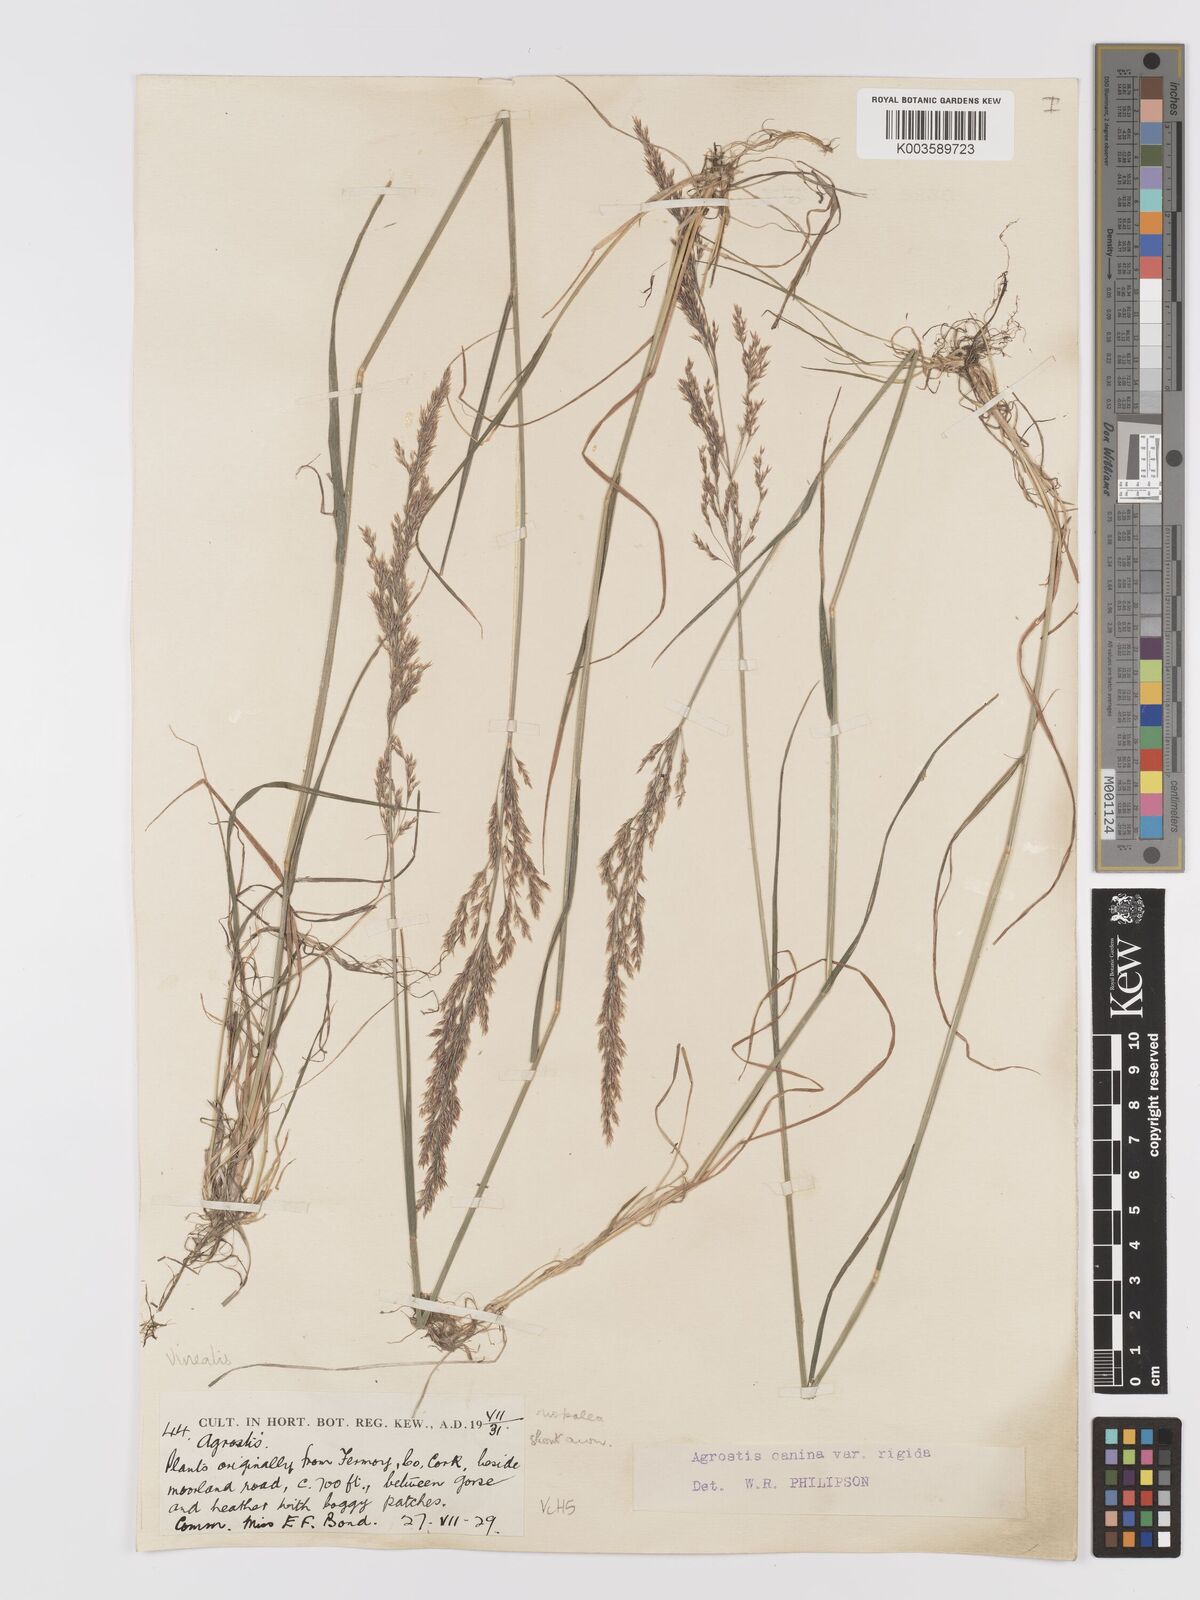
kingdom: Plantae
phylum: Tracheophyta
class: Liliopsida
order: Poales
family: Poaceae
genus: Agrostis
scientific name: Agrostis
